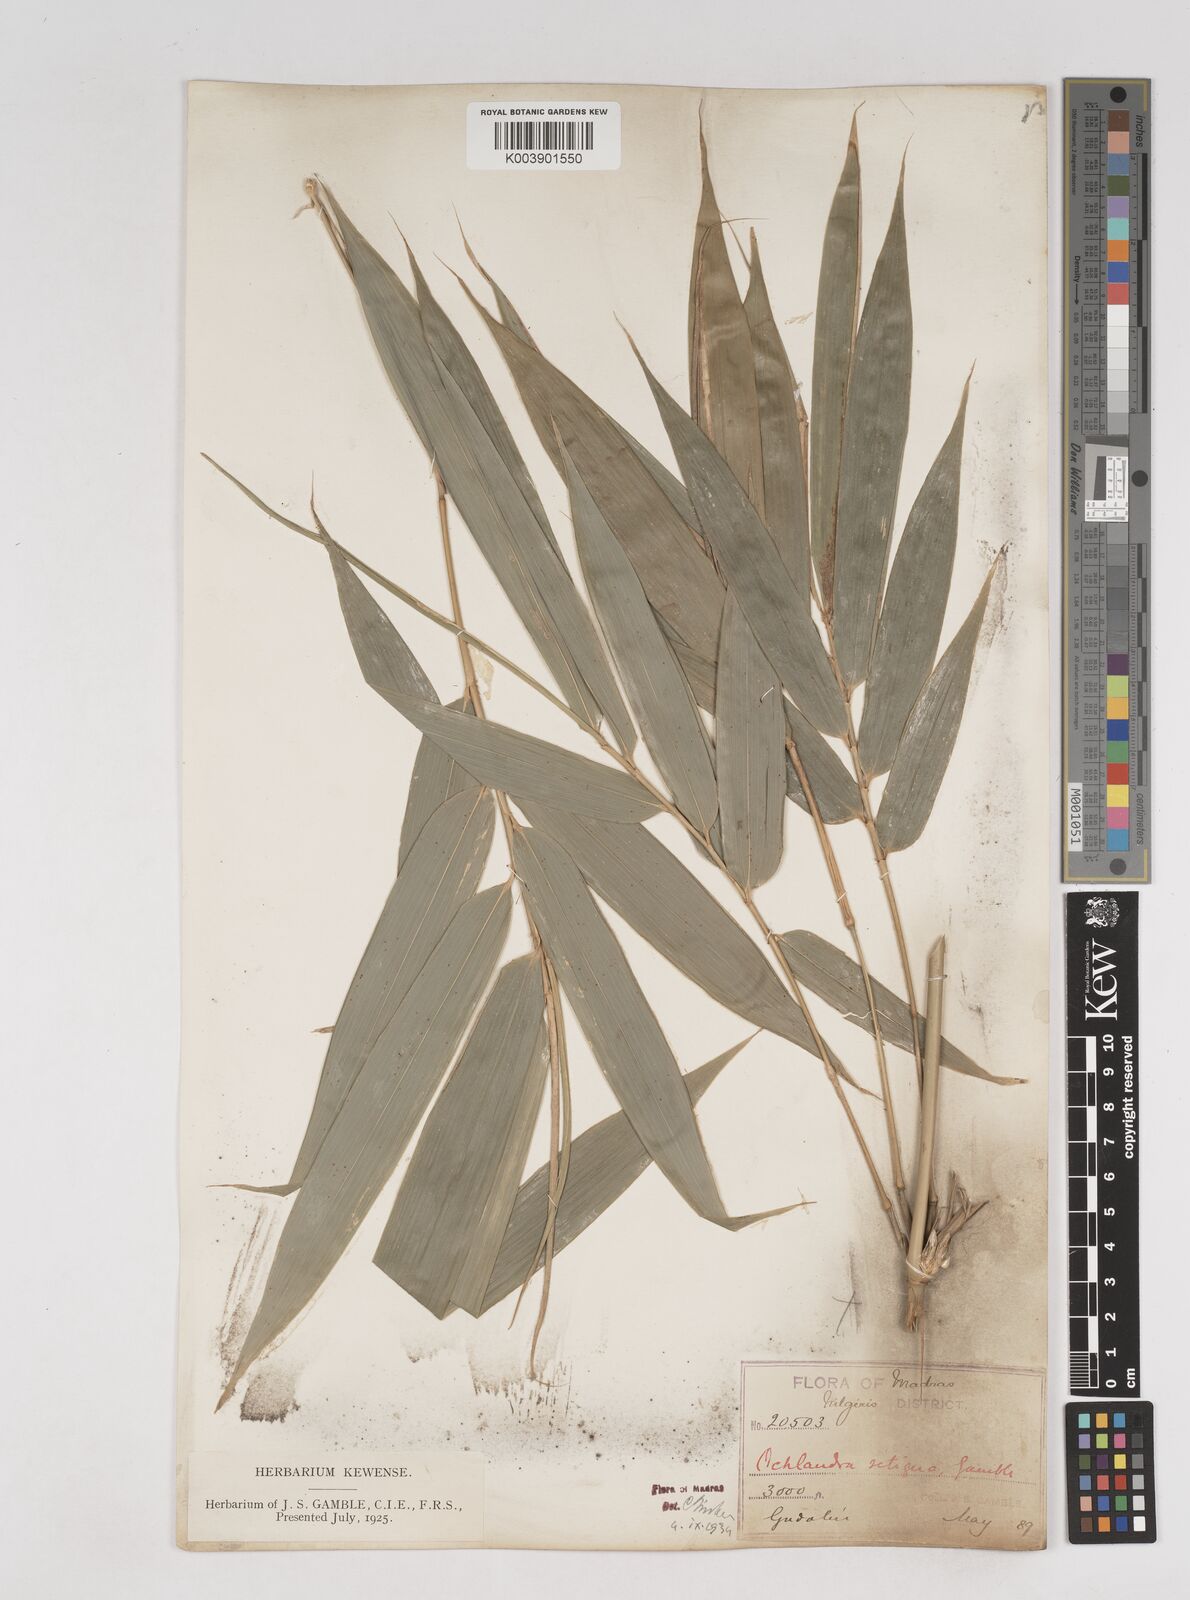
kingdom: Plantae
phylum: Tracheophyta
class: Liliopsida
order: Poales
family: Poaceae
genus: Ochlandra
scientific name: Ochlandra setigera
